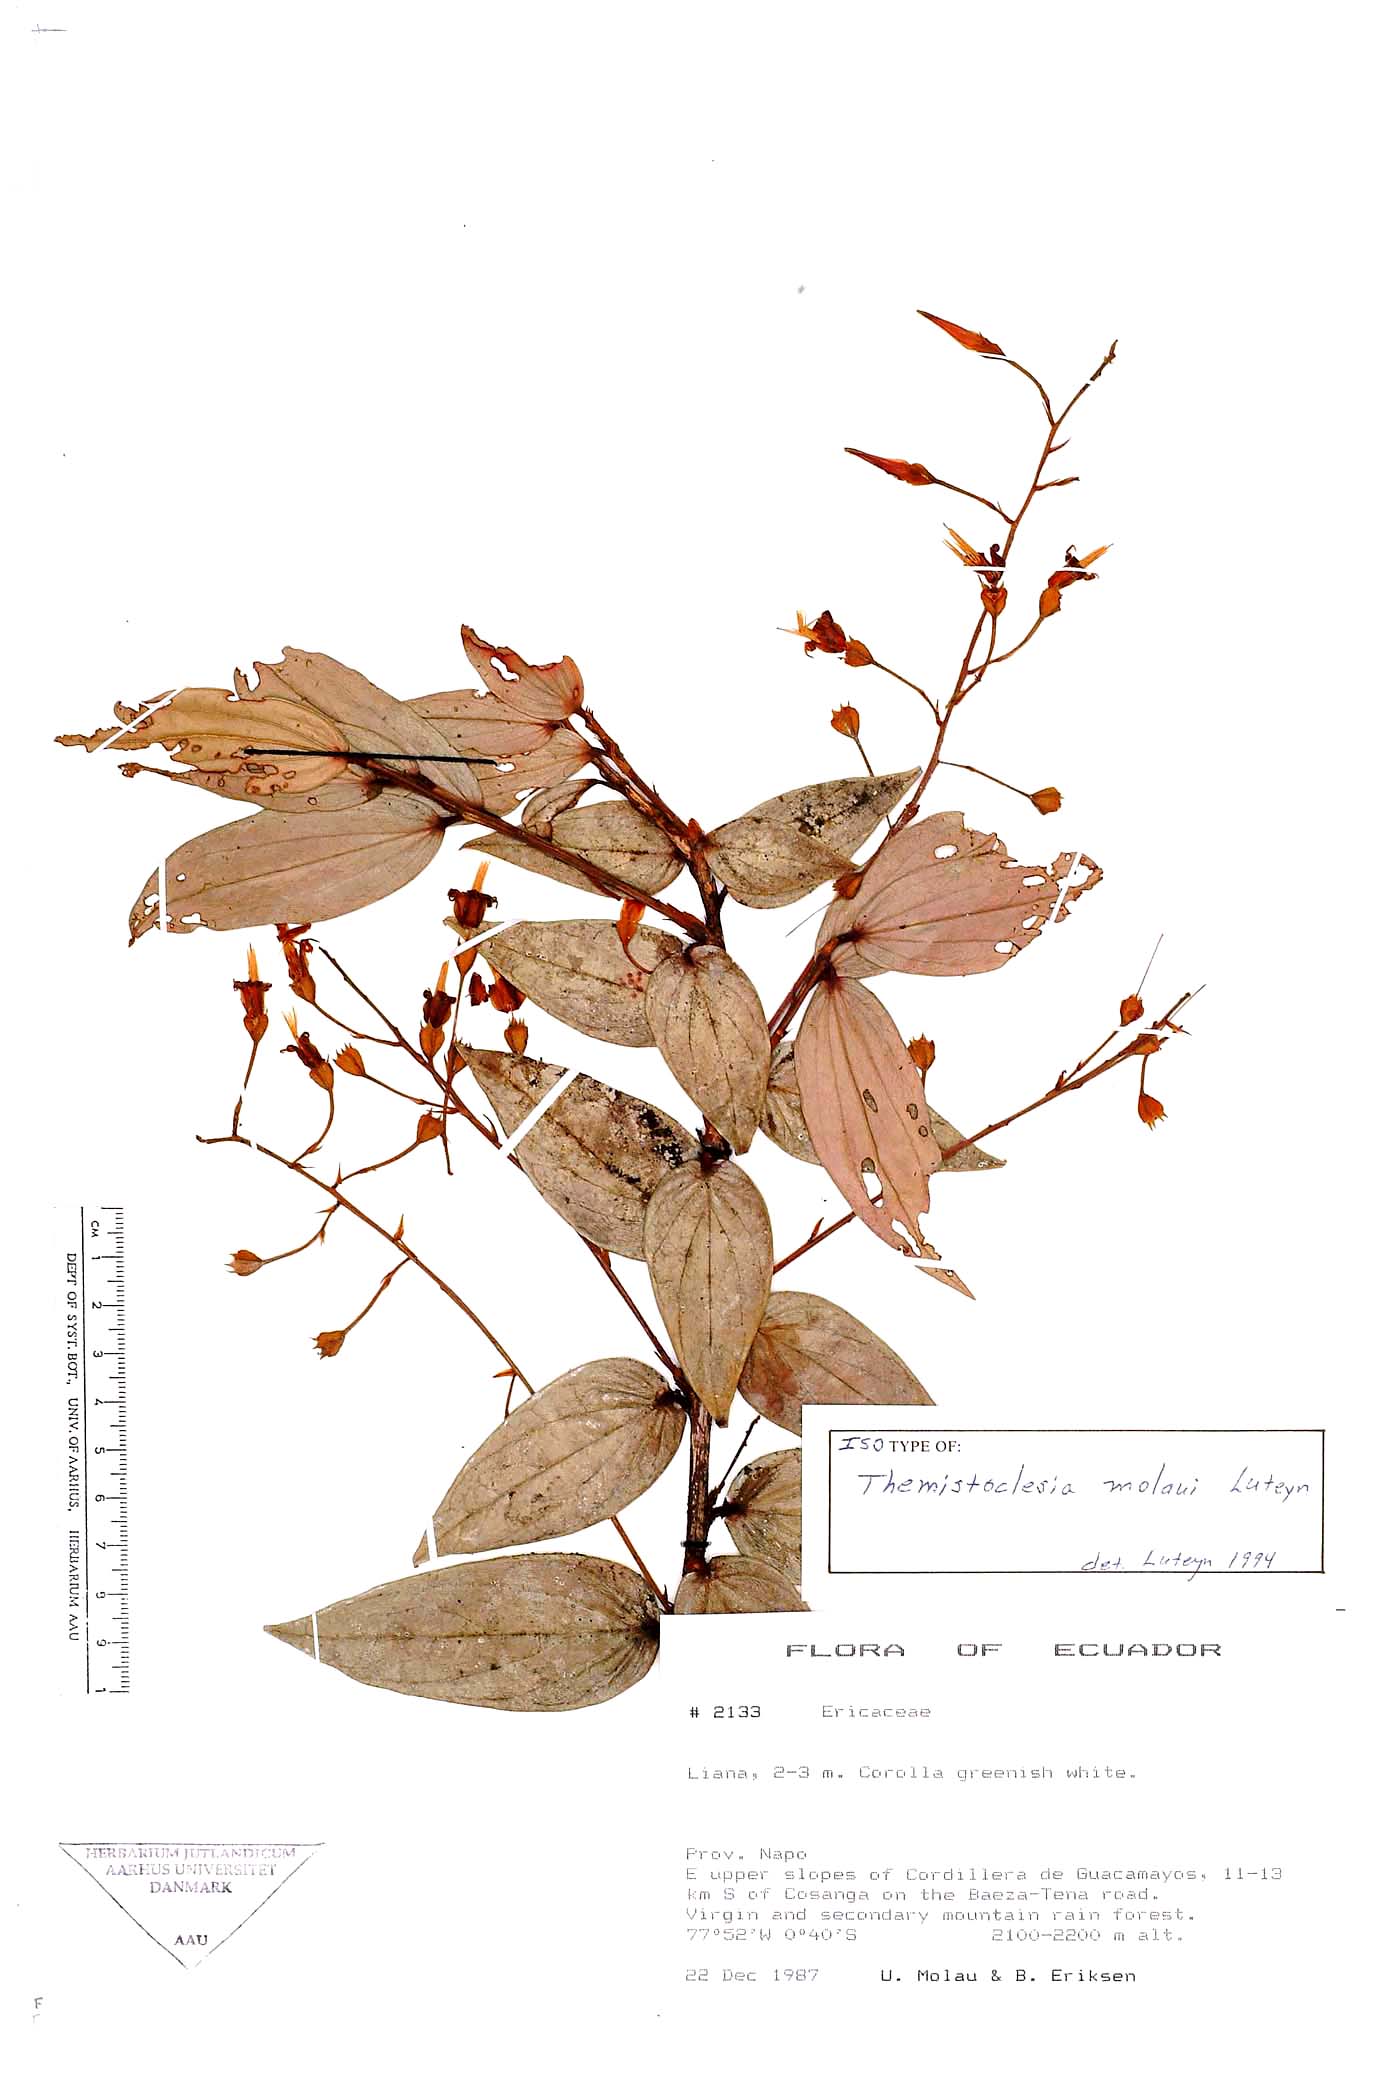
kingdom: Plantae
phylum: Tracheophyta
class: Magnoliopsida
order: Ericales
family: Ericaceae
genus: Anthopterus
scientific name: Anthopterus molaui
